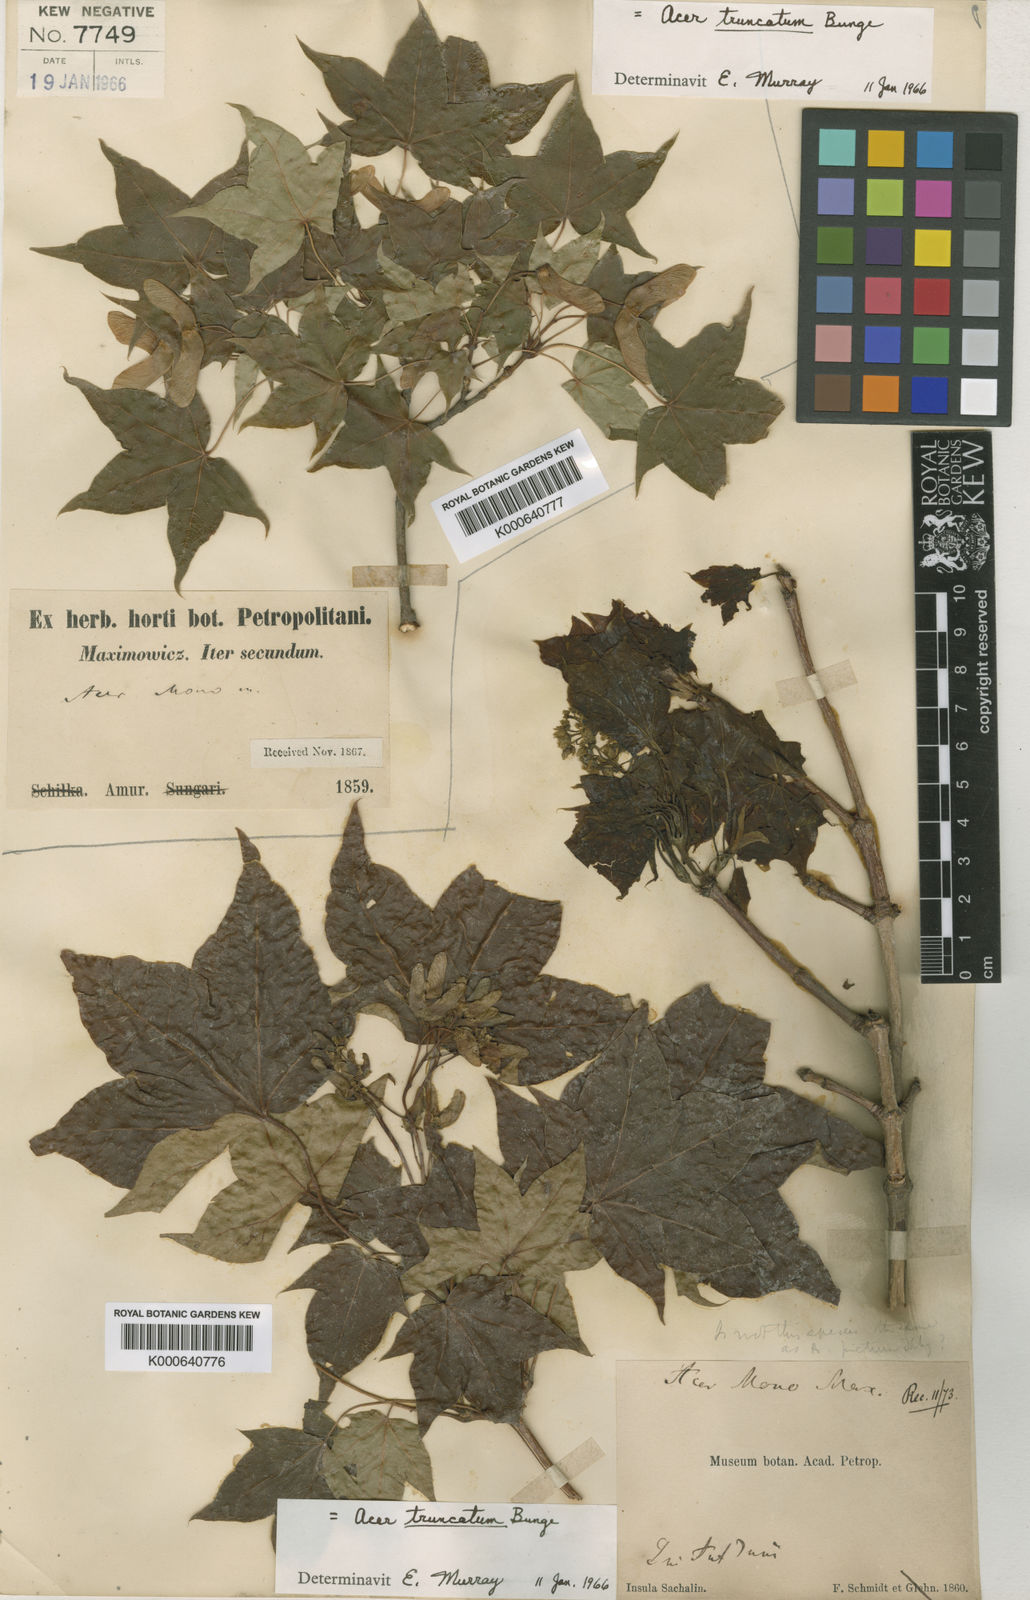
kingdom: Plantae
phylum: Tracheophyta
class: Magnoliopsida
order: Sapindales
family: Sapindaceae
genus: Acer
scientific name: Acer pictum
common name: The painted maple
